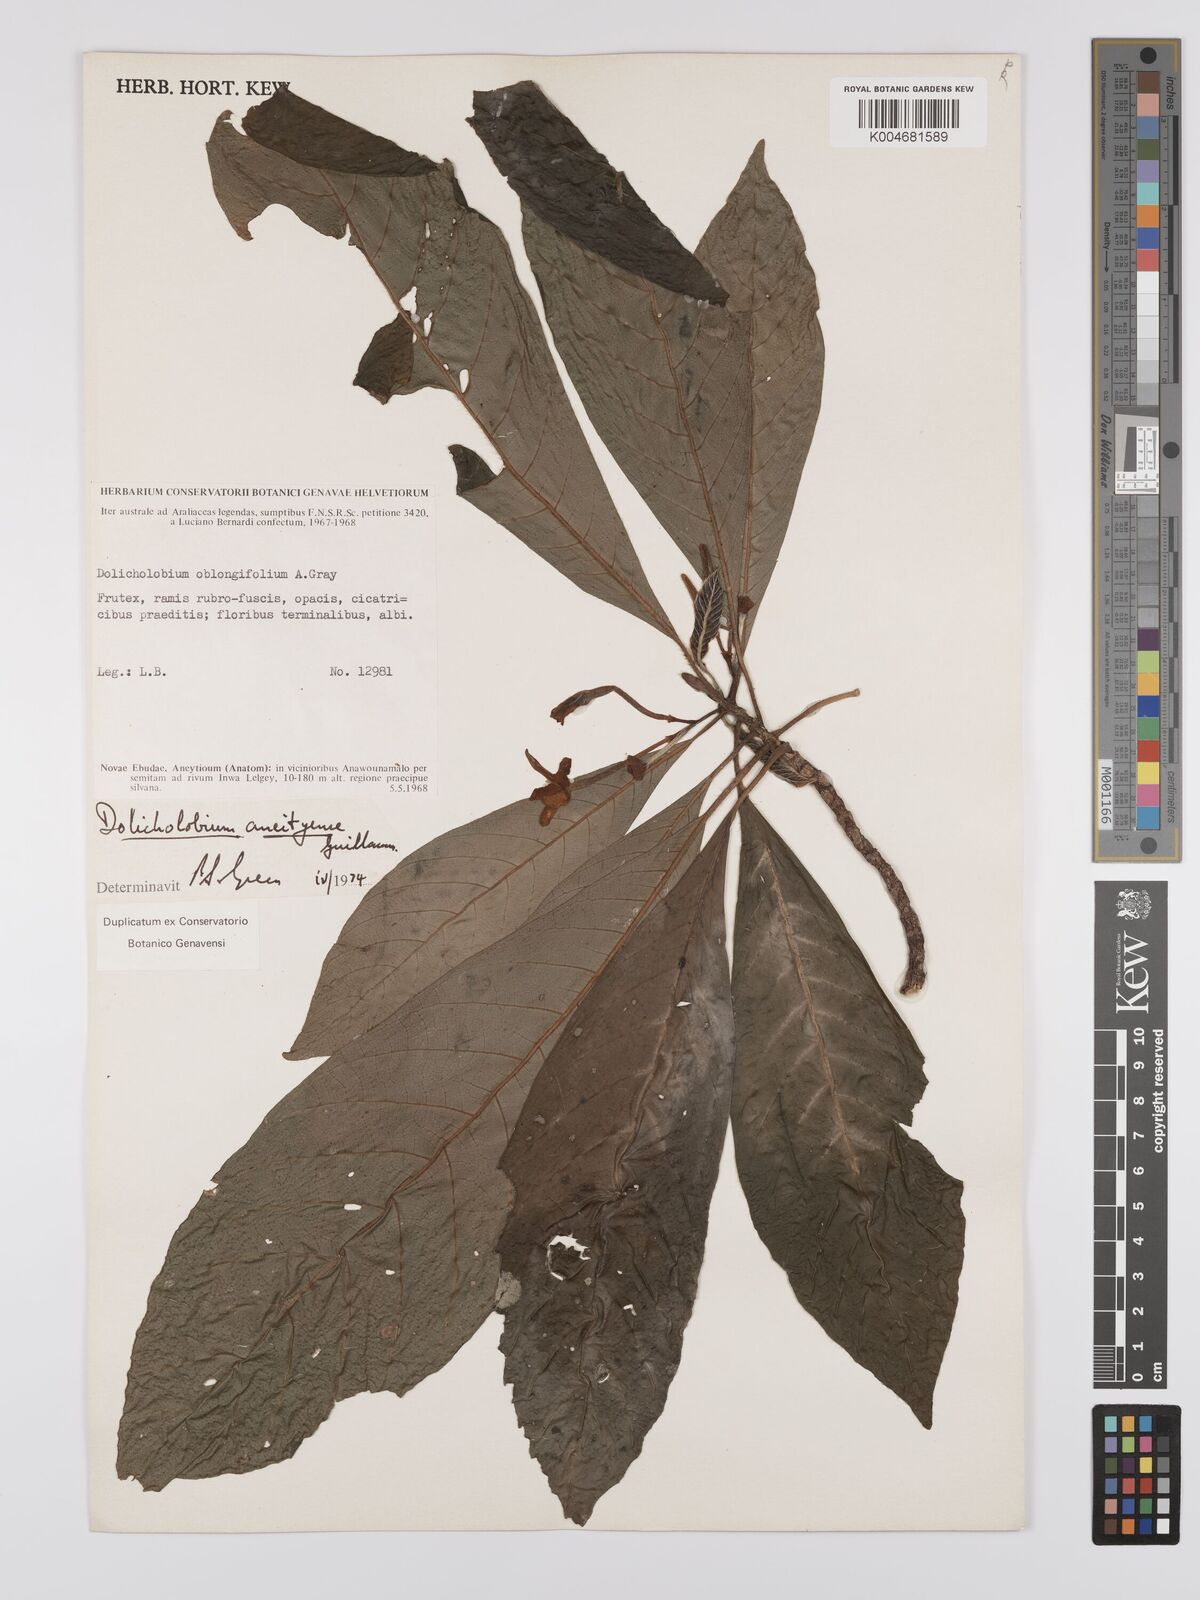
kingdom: Plantae
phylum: Tracheophyta
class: Magnoliopsida
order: Gentianales
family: Rubiaceae
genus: Dolicholobium
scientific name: Dolicholobium oblongifolium
